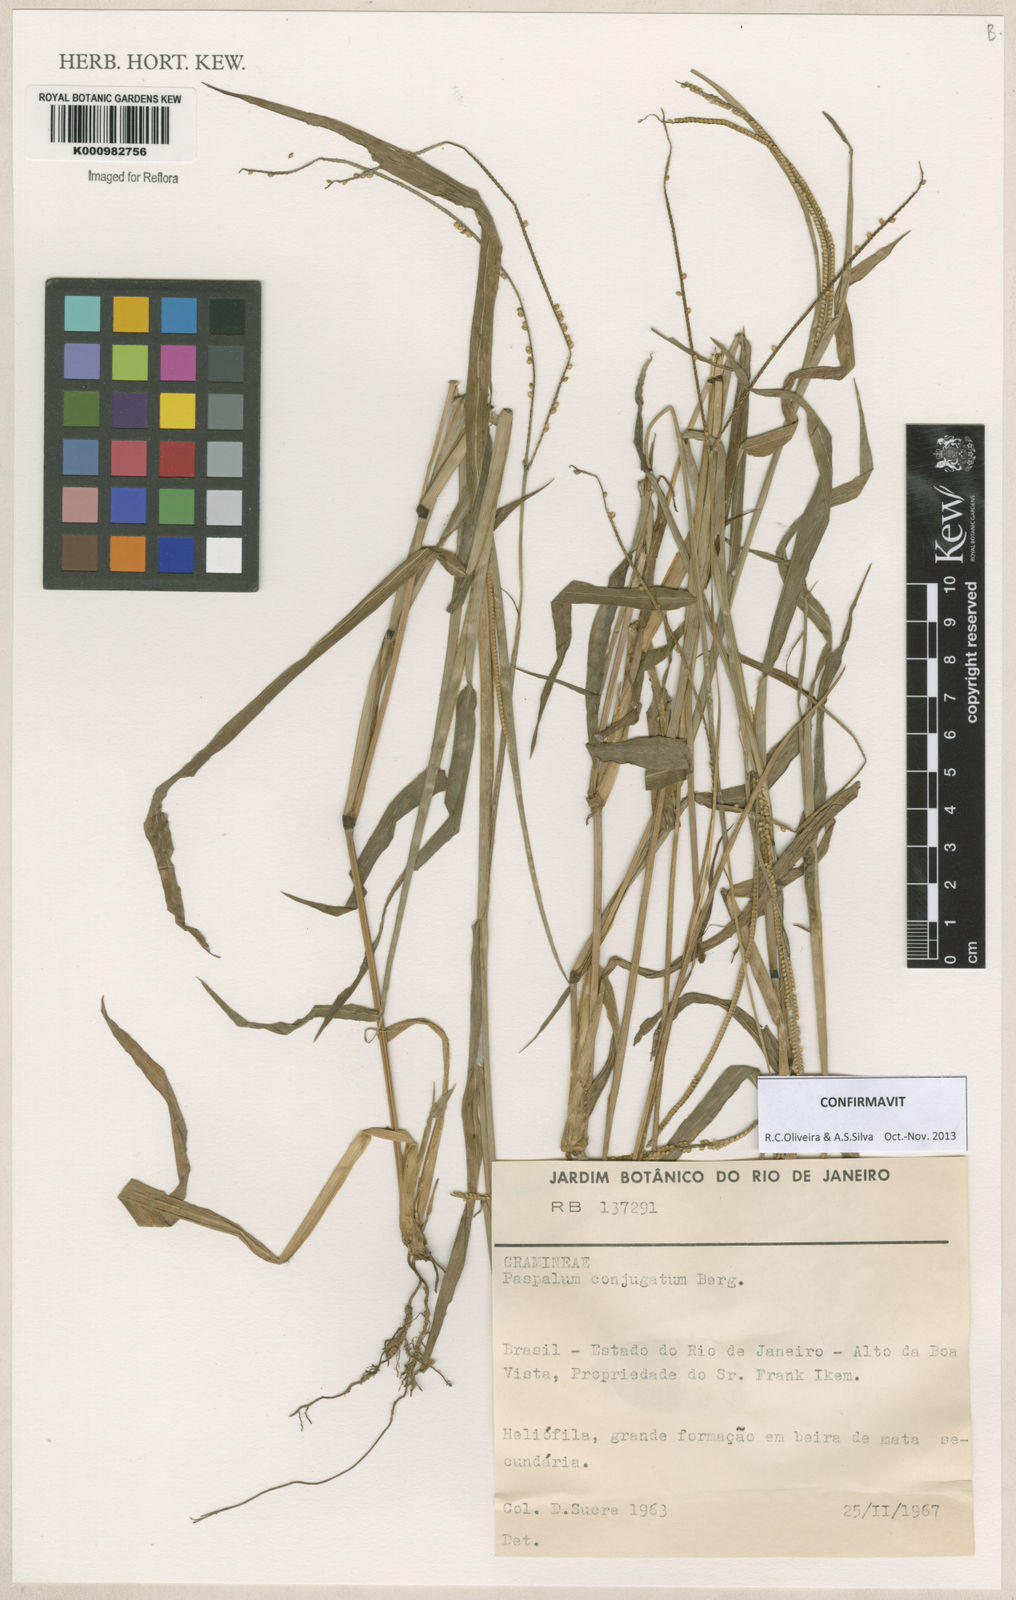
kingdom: Plantae
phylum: Tracheophyta
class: Liliopsida
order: Poales
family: Poaceae
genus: Paspalum
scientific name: Paspalum conjugatum
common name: Hilograss
